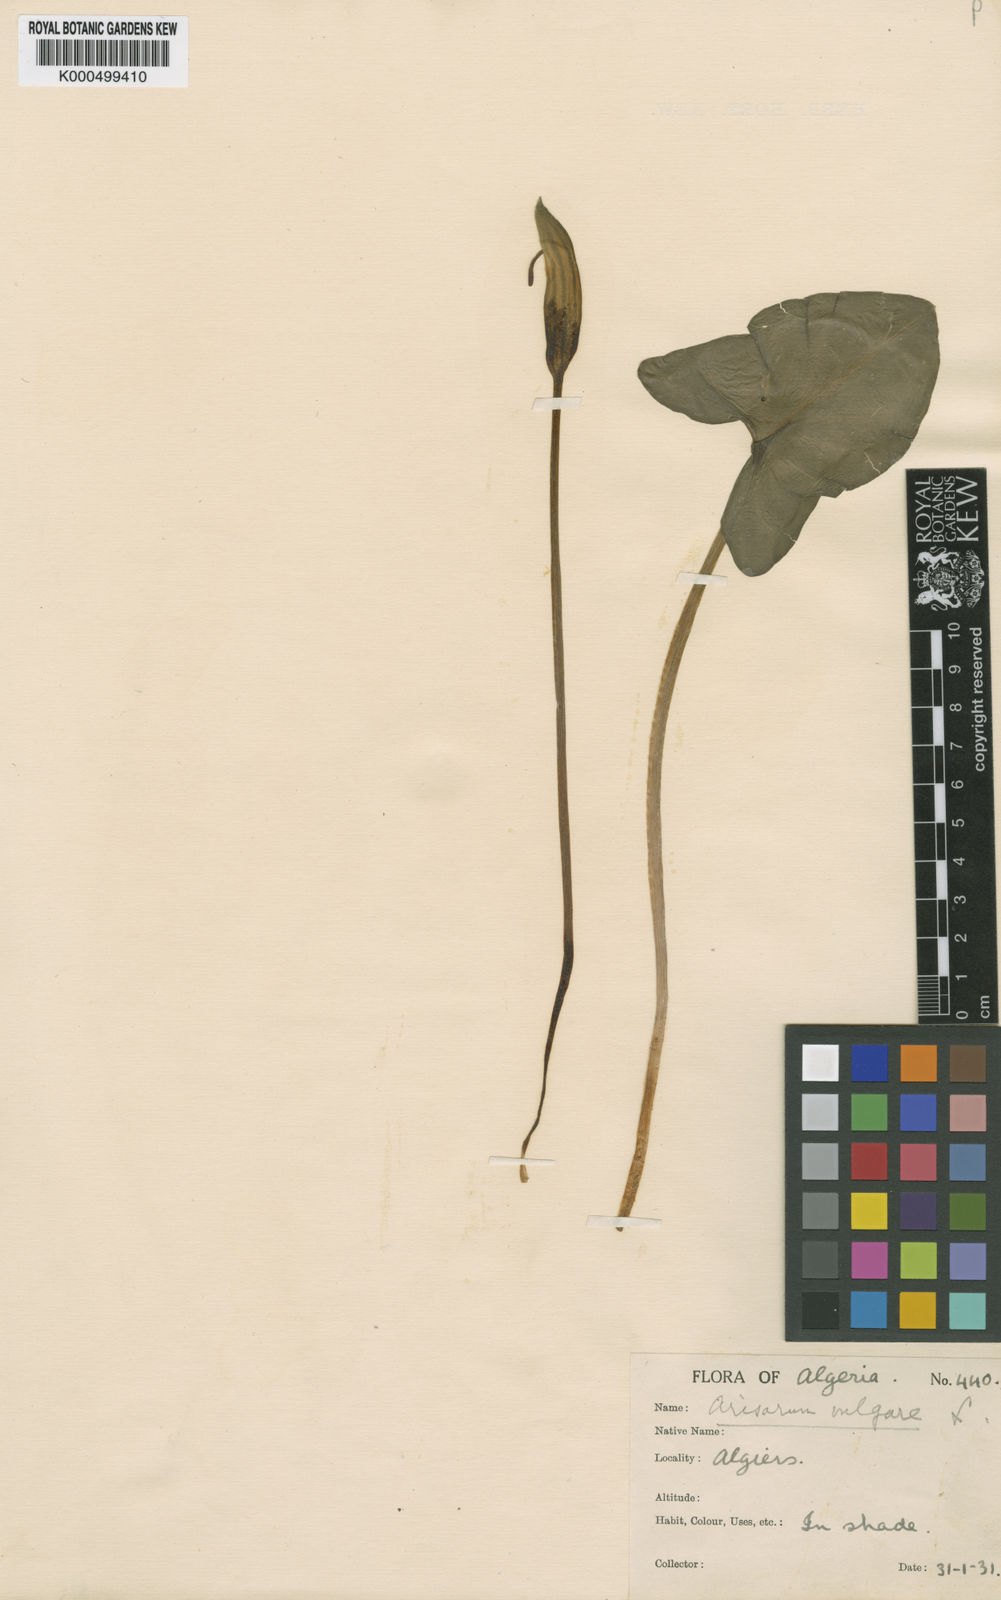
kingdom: Plantae
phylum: Tracheophyta
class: Liliopsida
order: Alismatales
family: Araceae
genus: Arisarum
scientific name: Arisarum
